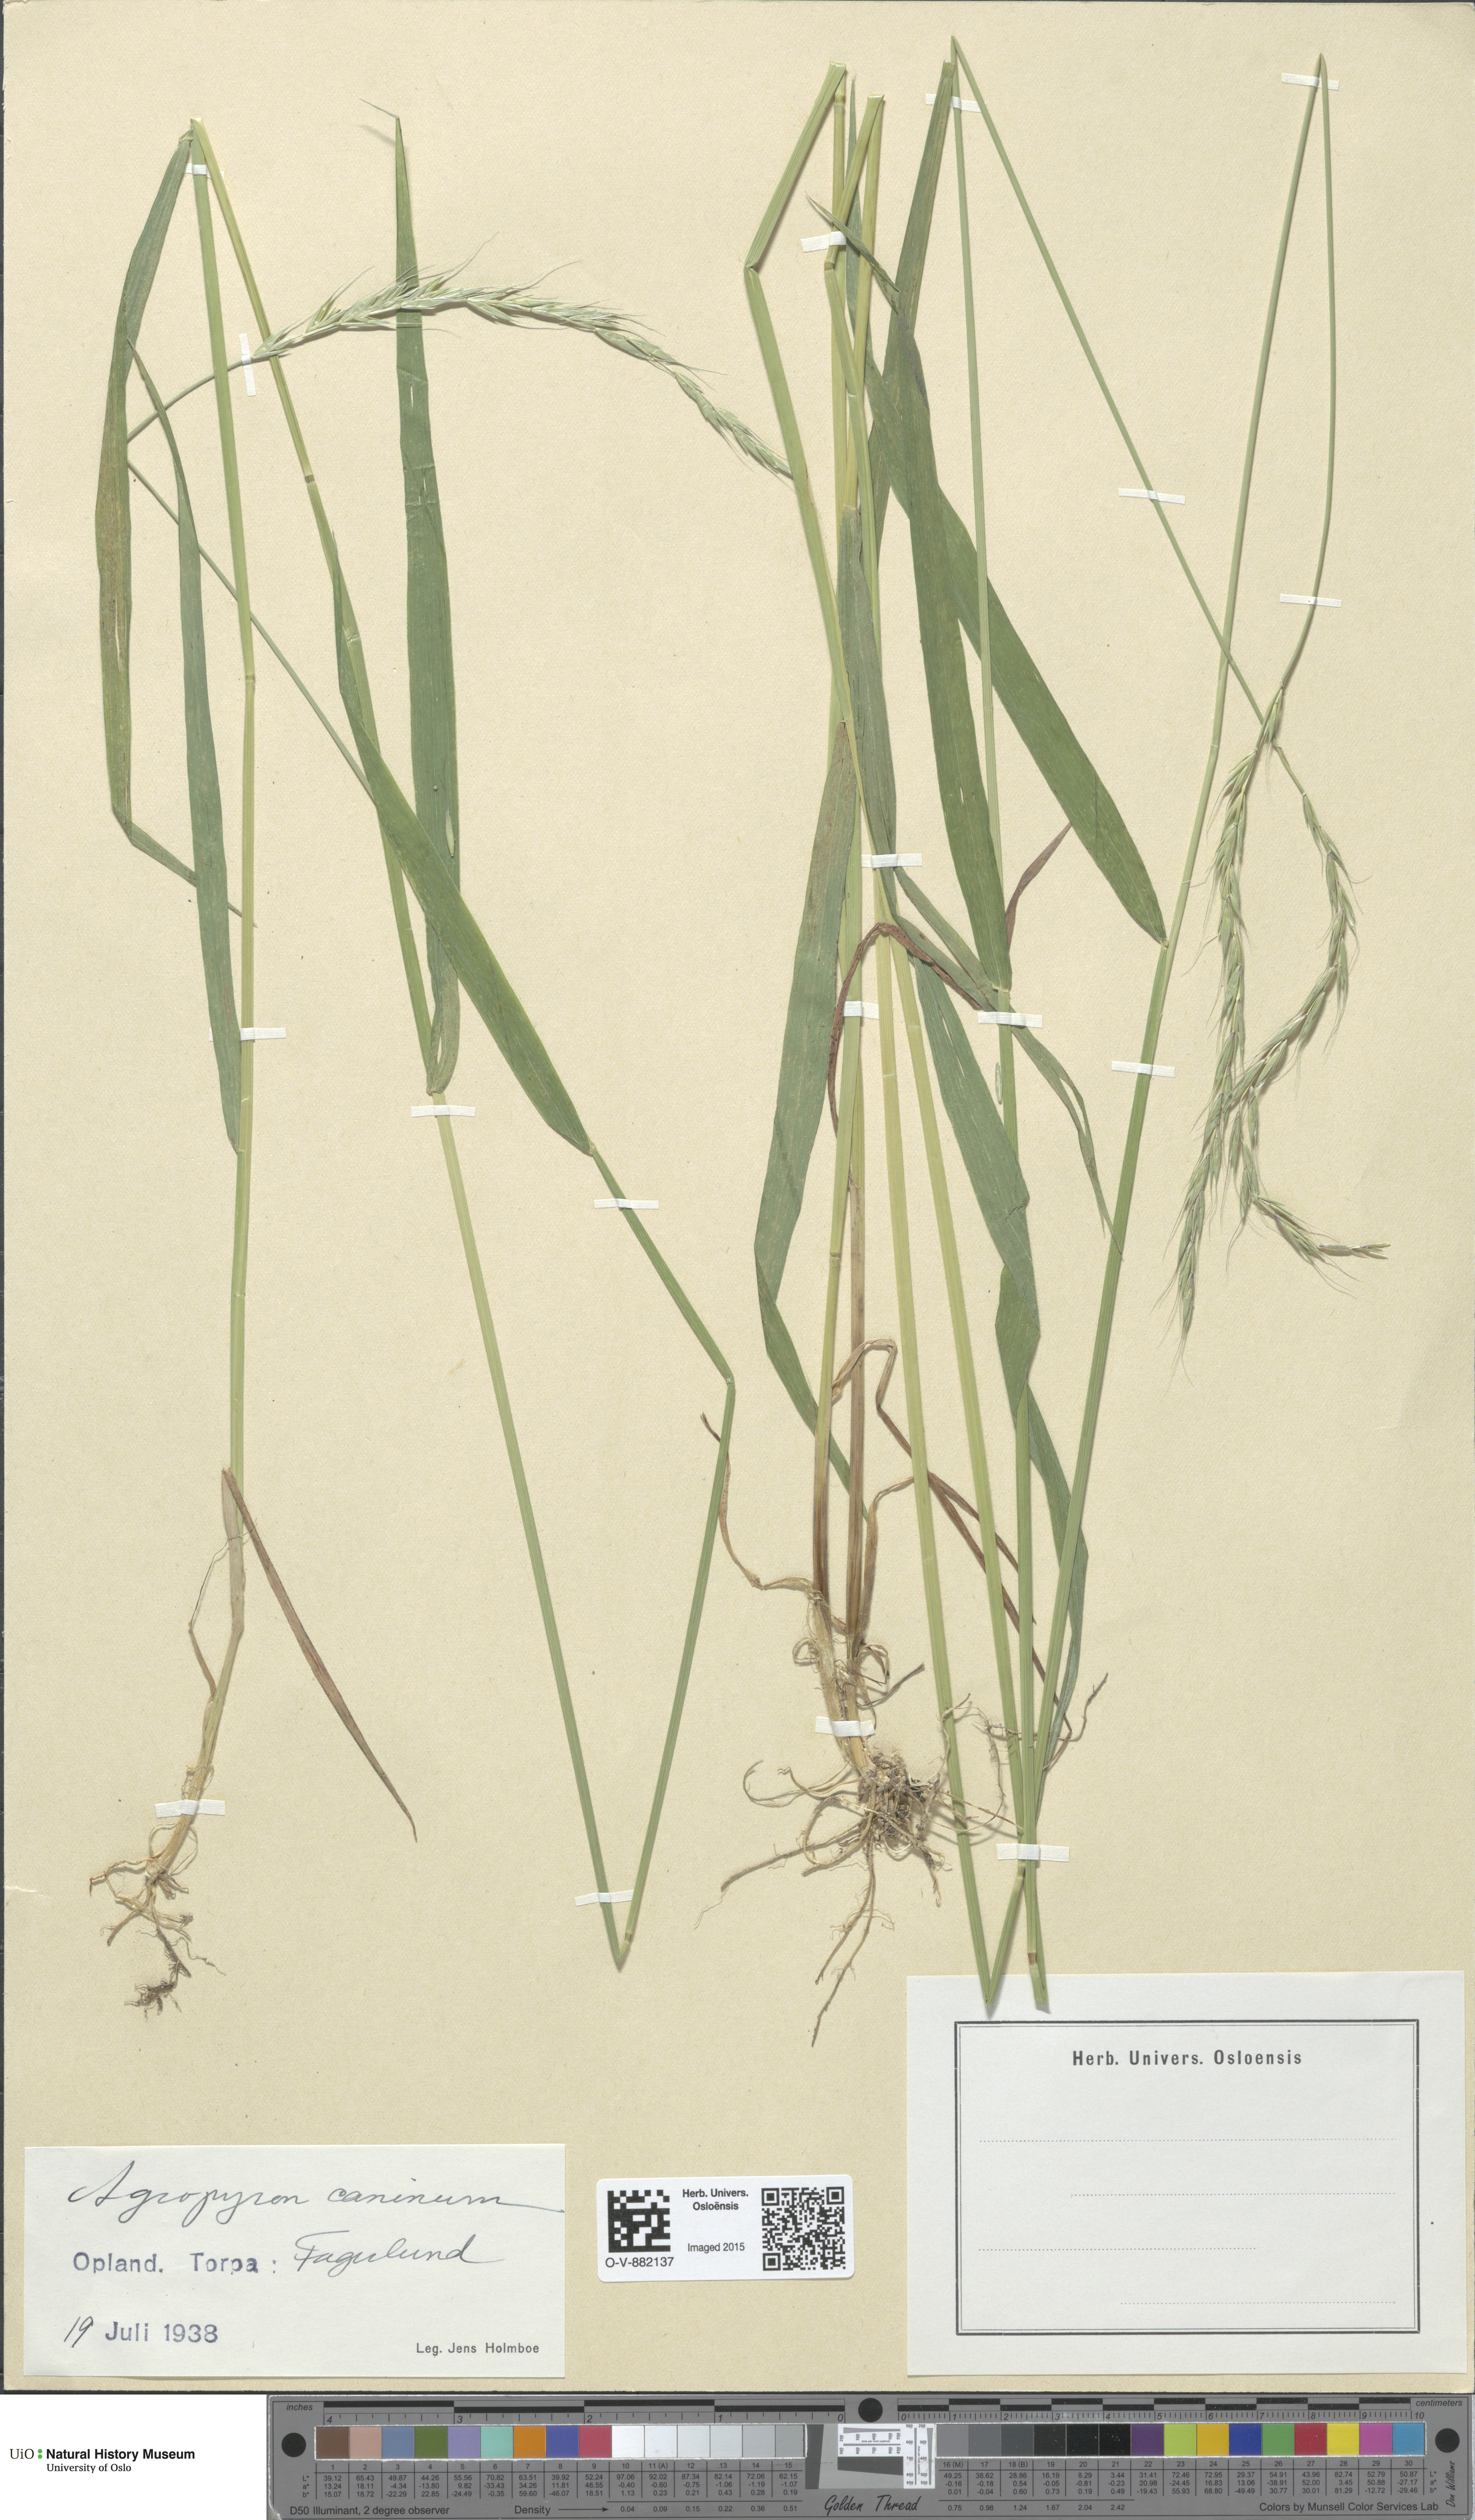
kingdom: Plantae
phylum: Tracheophyta
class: Liliopsida
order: Poales
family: Poaceae
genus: Elymus
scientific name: Elymus caninus
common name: Bearded couch
